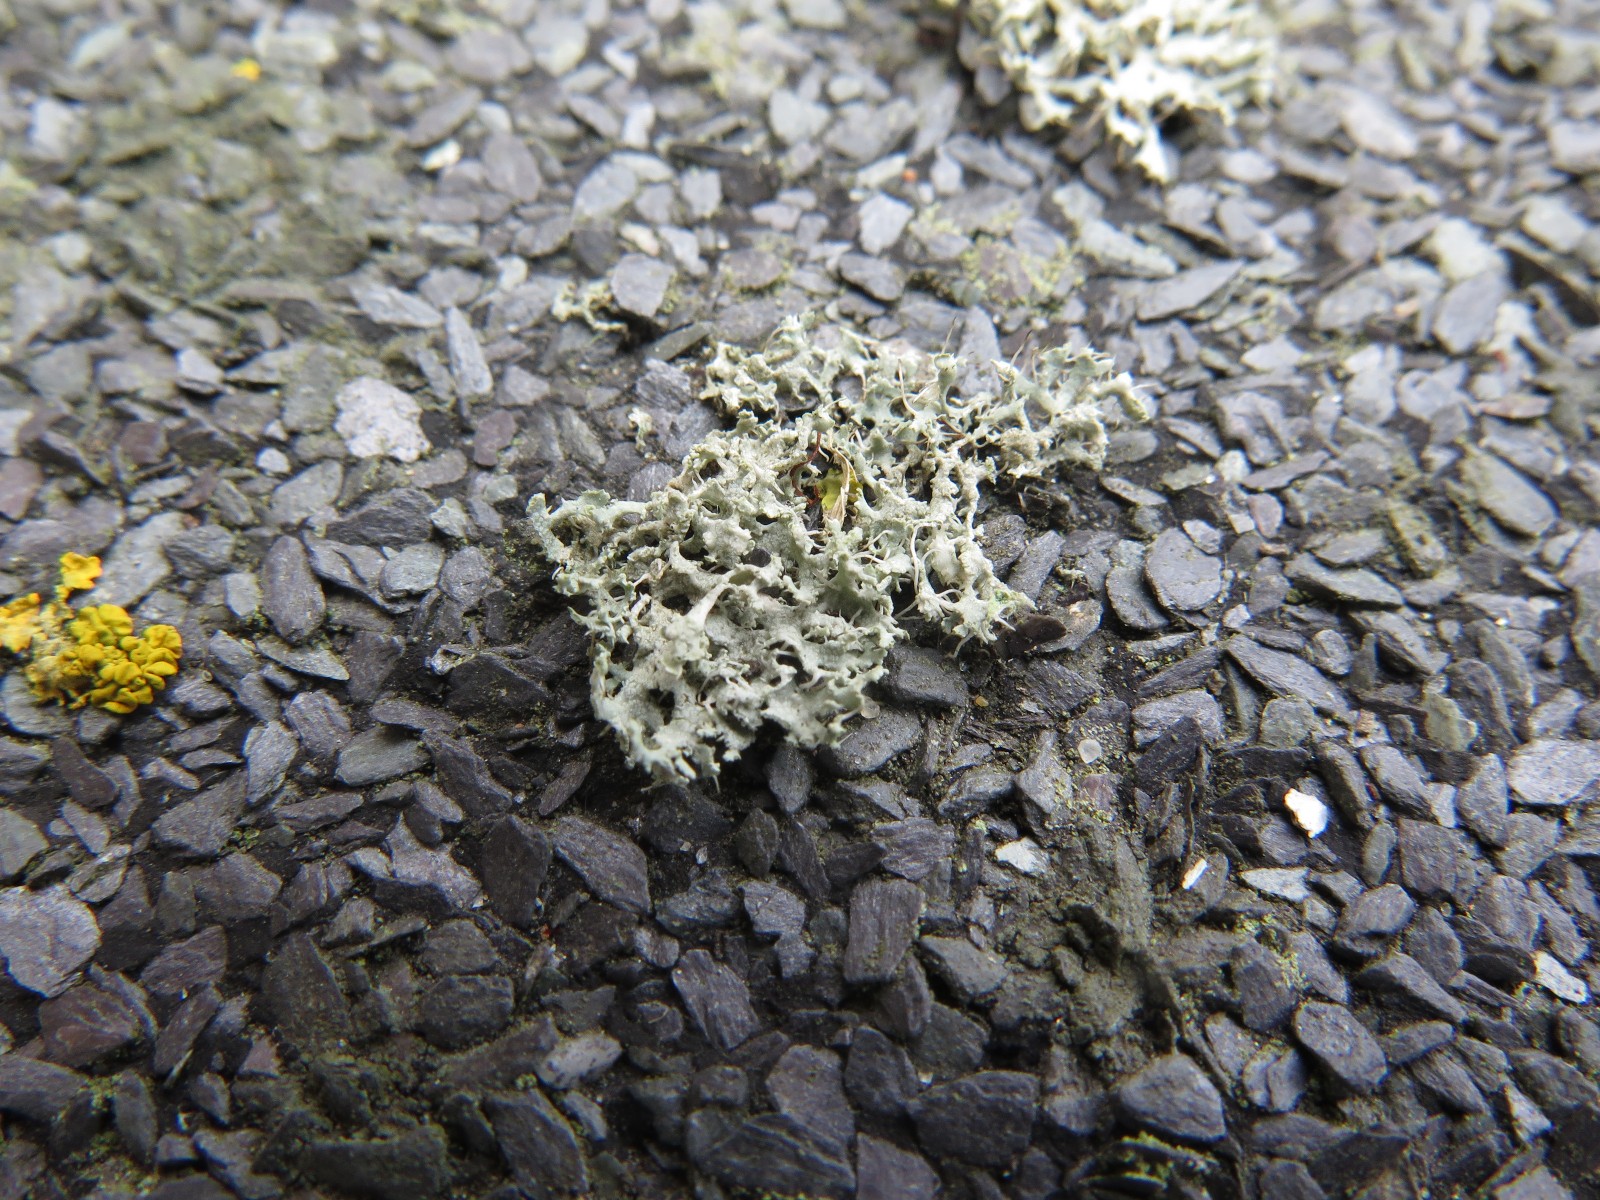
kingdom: Fungi
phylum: Ascomycota
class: Lecanoromycetes
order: Caliciales
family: Physciaceae
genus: Physcia
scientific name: Physcia tenella
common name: spæd rosetlav
